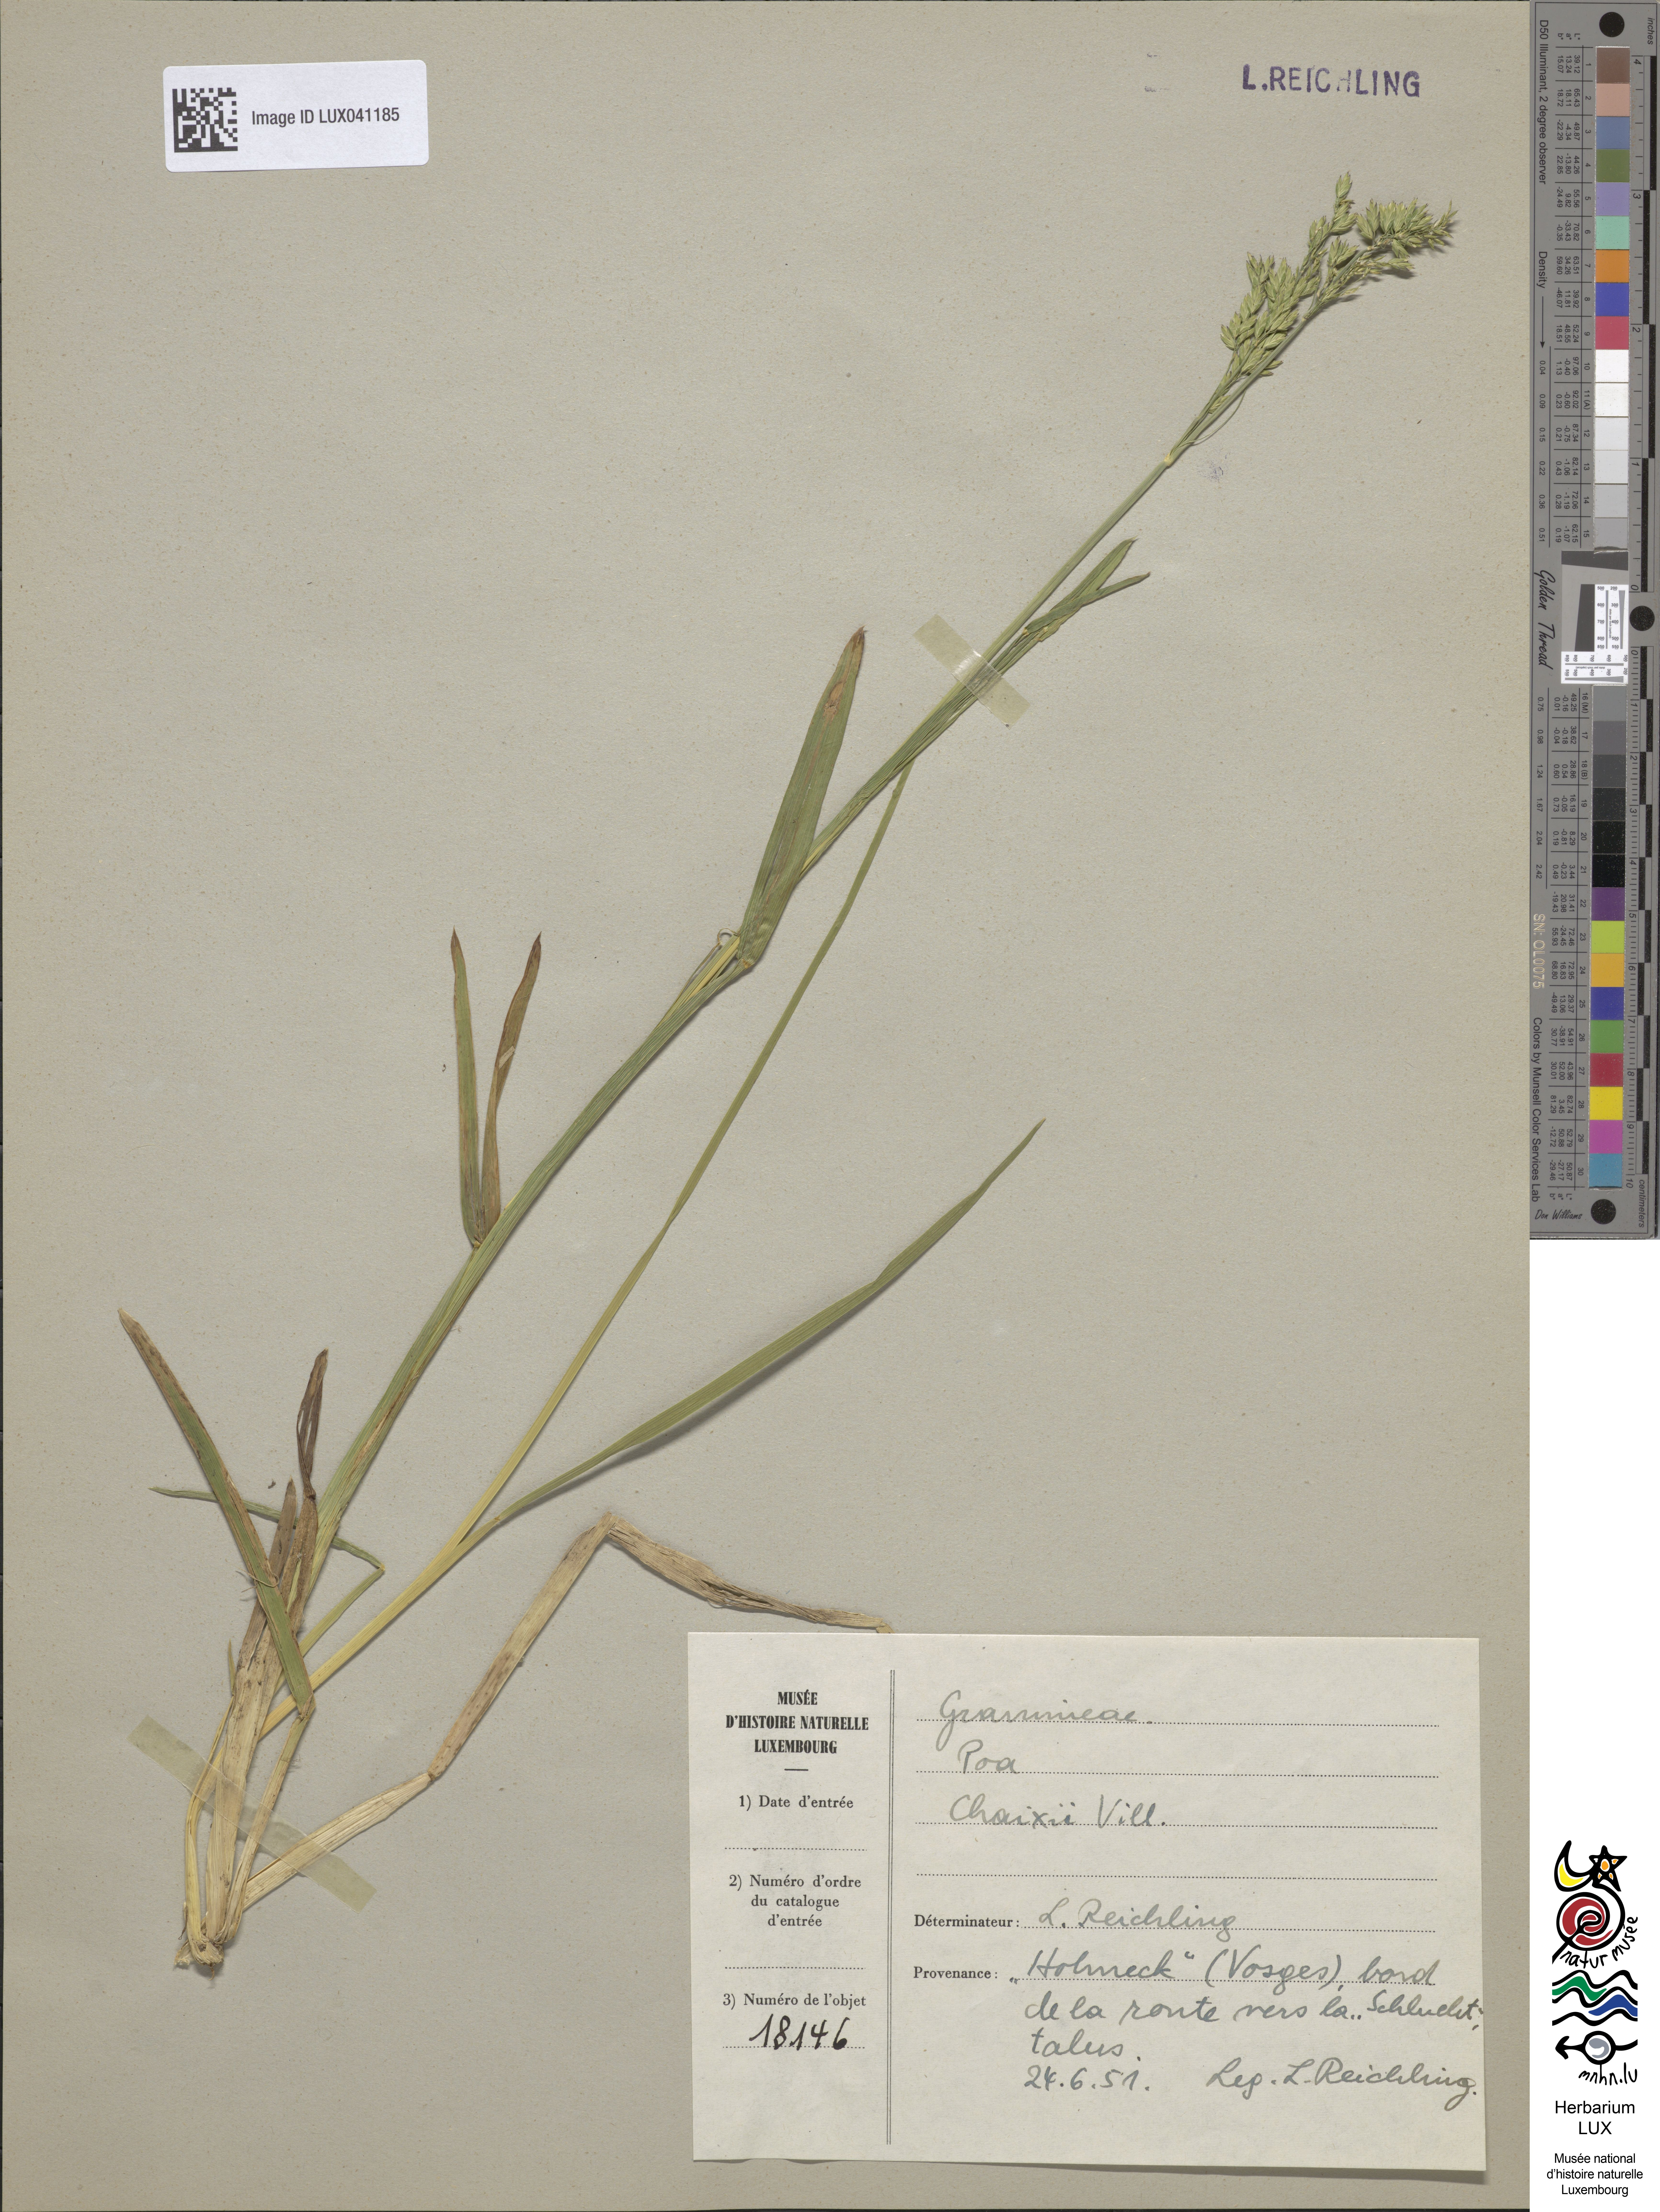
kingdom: Plantae
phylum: Tracheophyta
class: Liliopsida
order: Poales
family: Poaceae
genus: Poa
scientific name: Poa chaixii
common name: Broad-leaved meadow-grass
